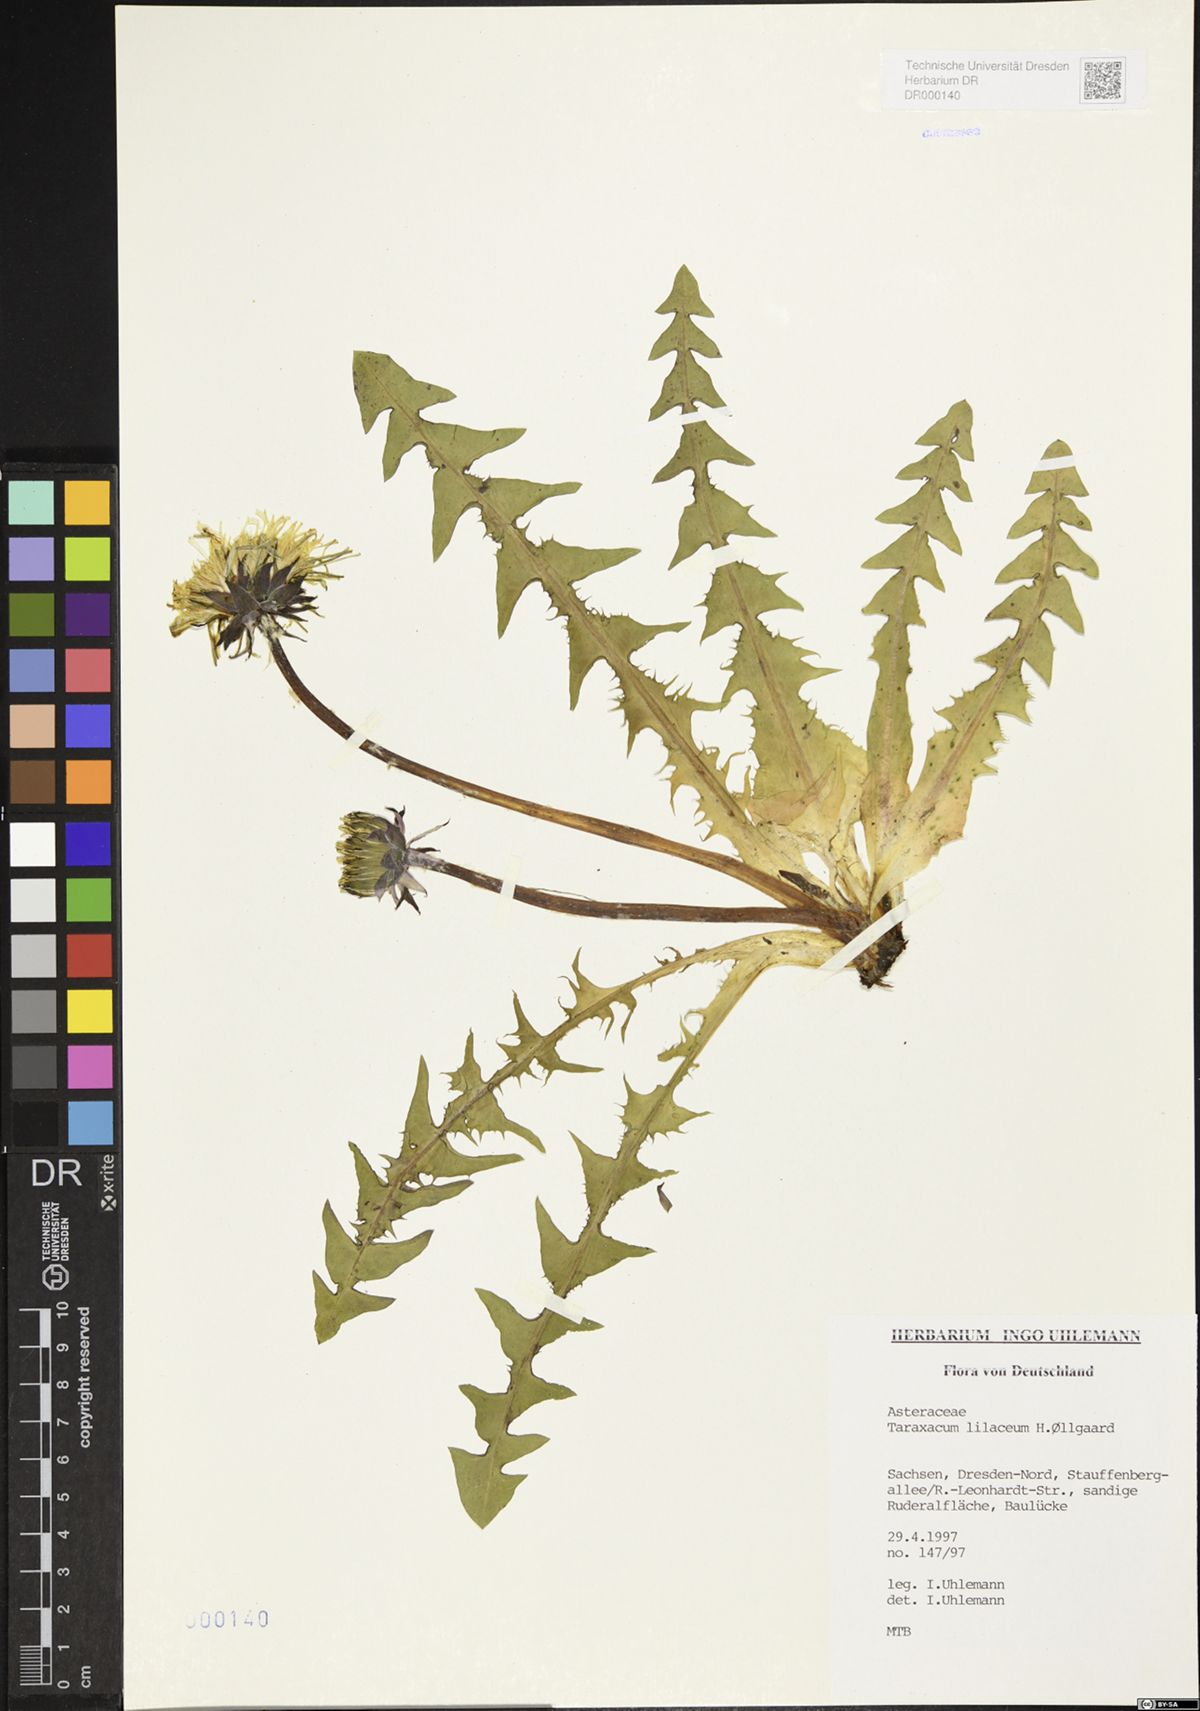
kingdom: Plantae
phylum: Tracheophyta
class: Magnoliopsida
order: Asterales
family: Asteraceae
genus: Taraxacum
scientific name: Taraxacum floccosum
